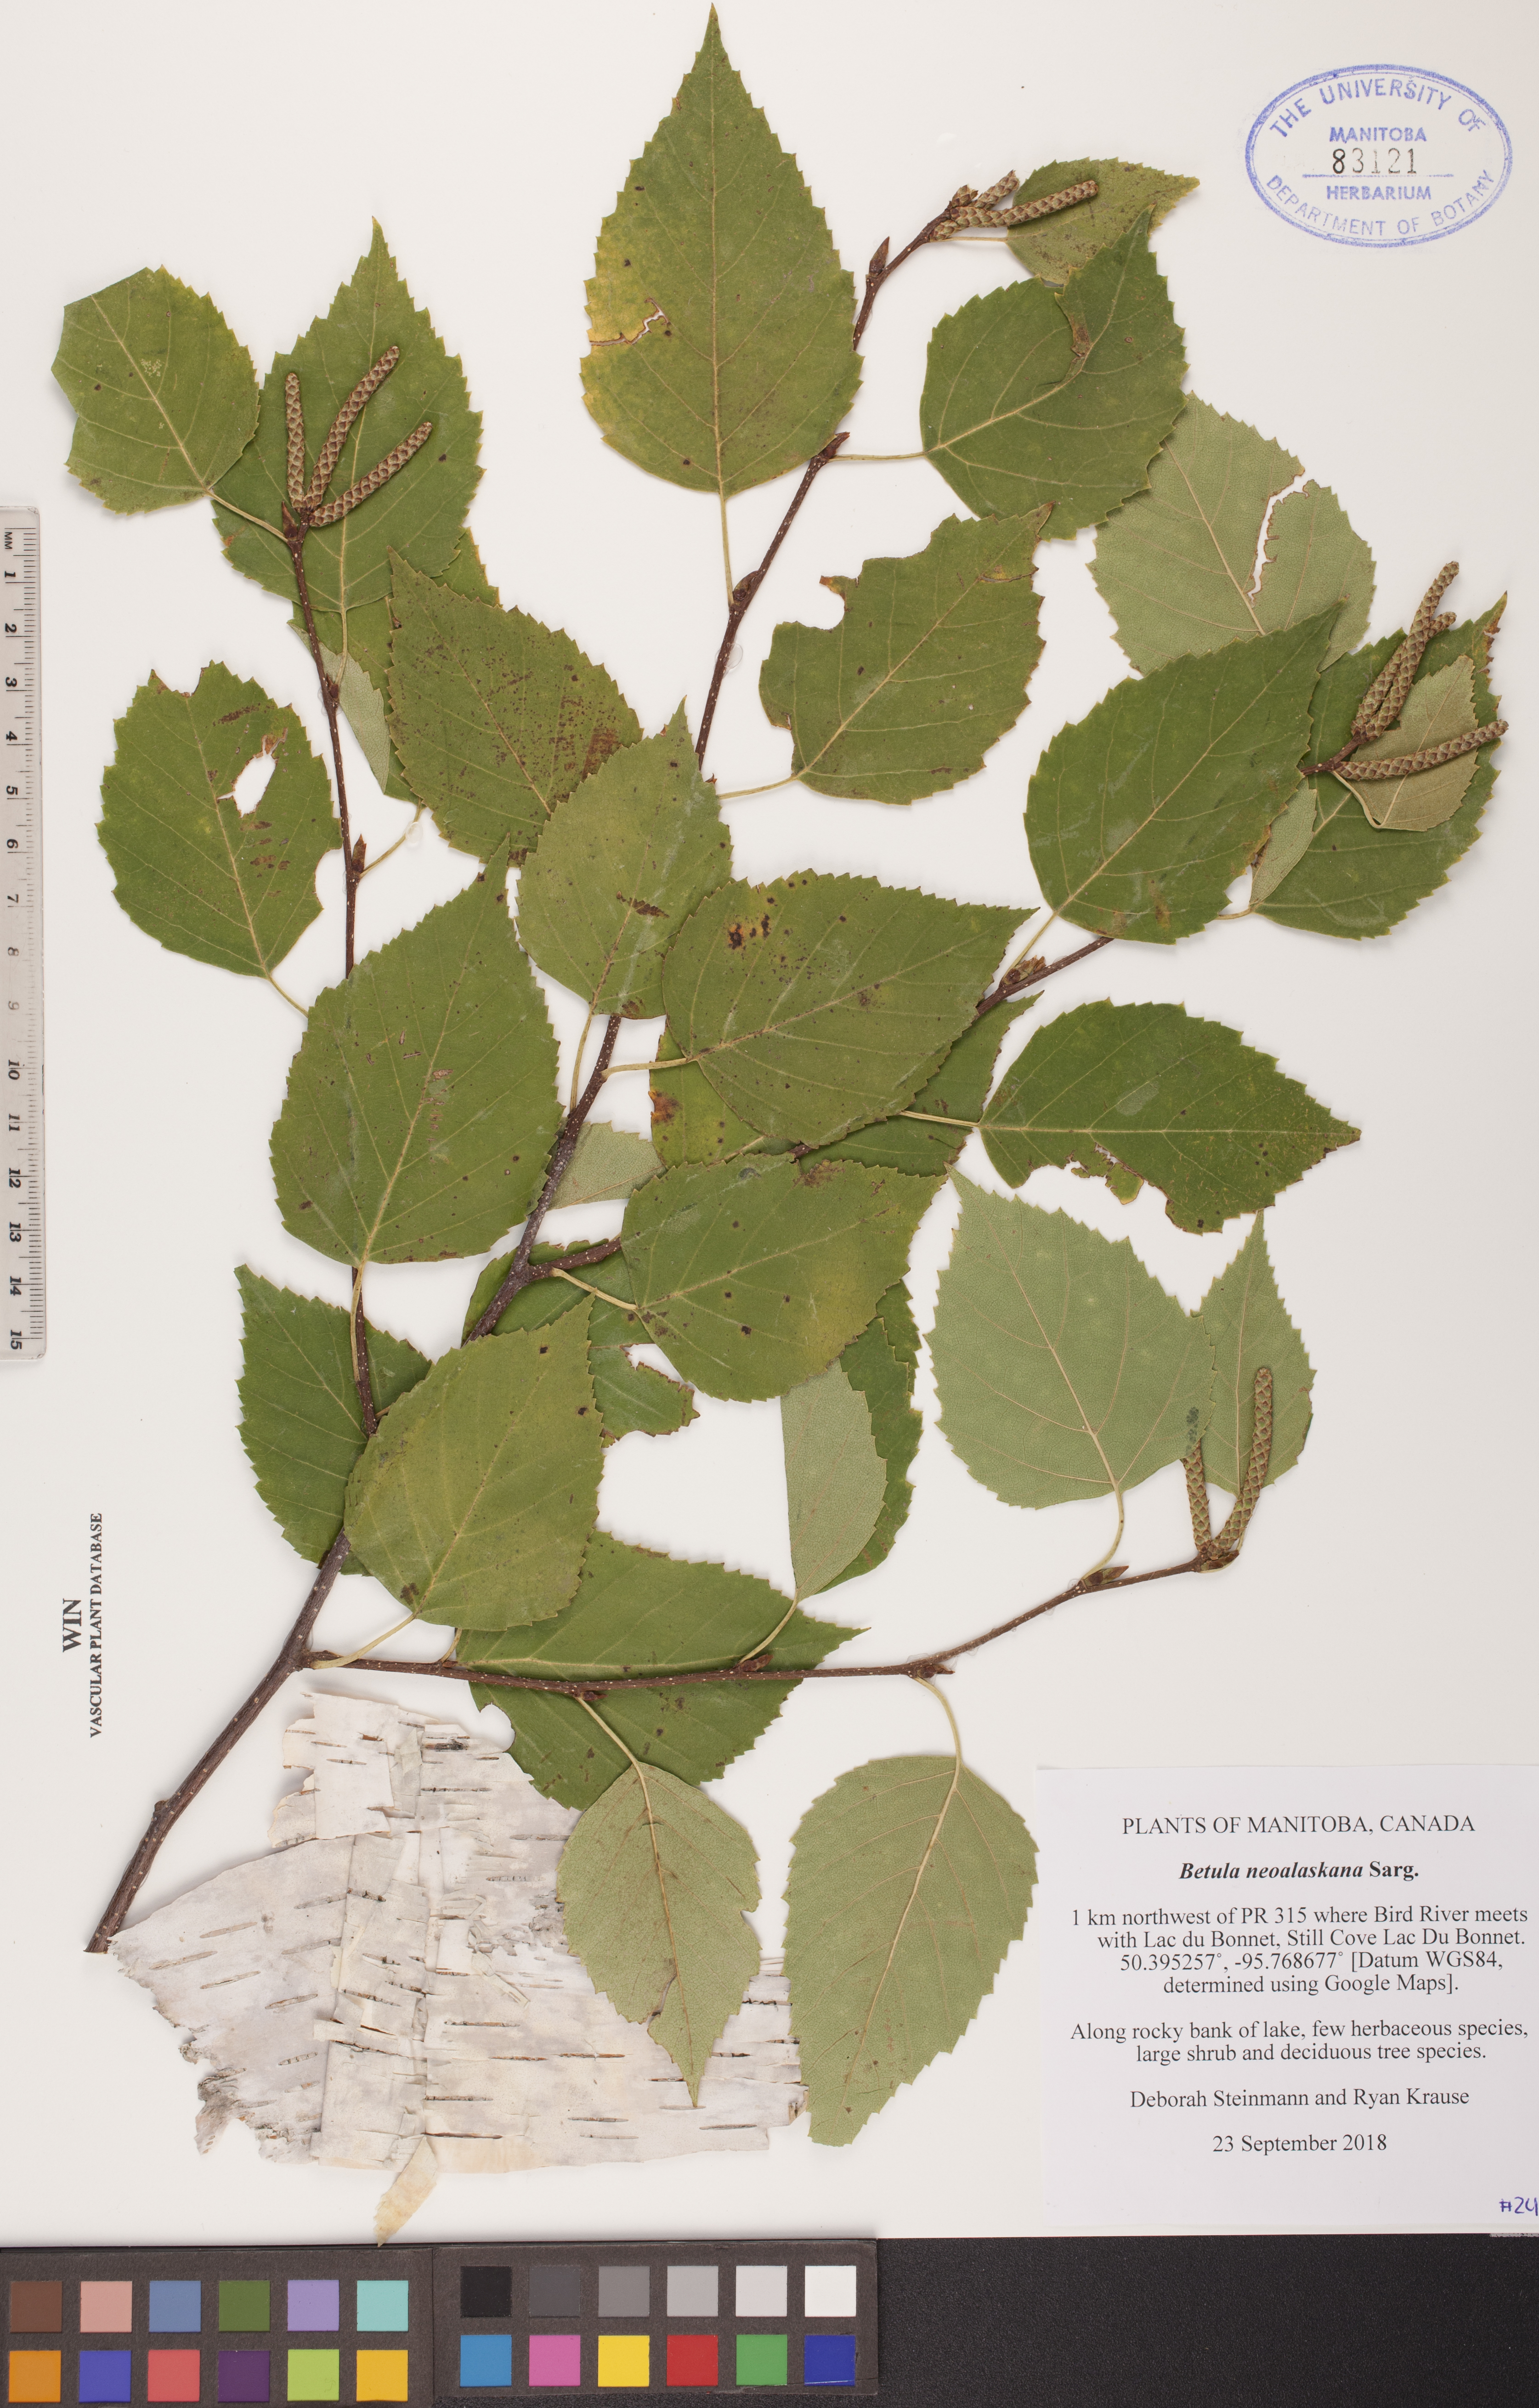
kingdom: Plantae
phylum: Tracheophyta
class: Magnoliopsida
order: Fagales
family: Betulaceae
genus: Betula
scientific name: Betula pendula
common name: Silver birch
